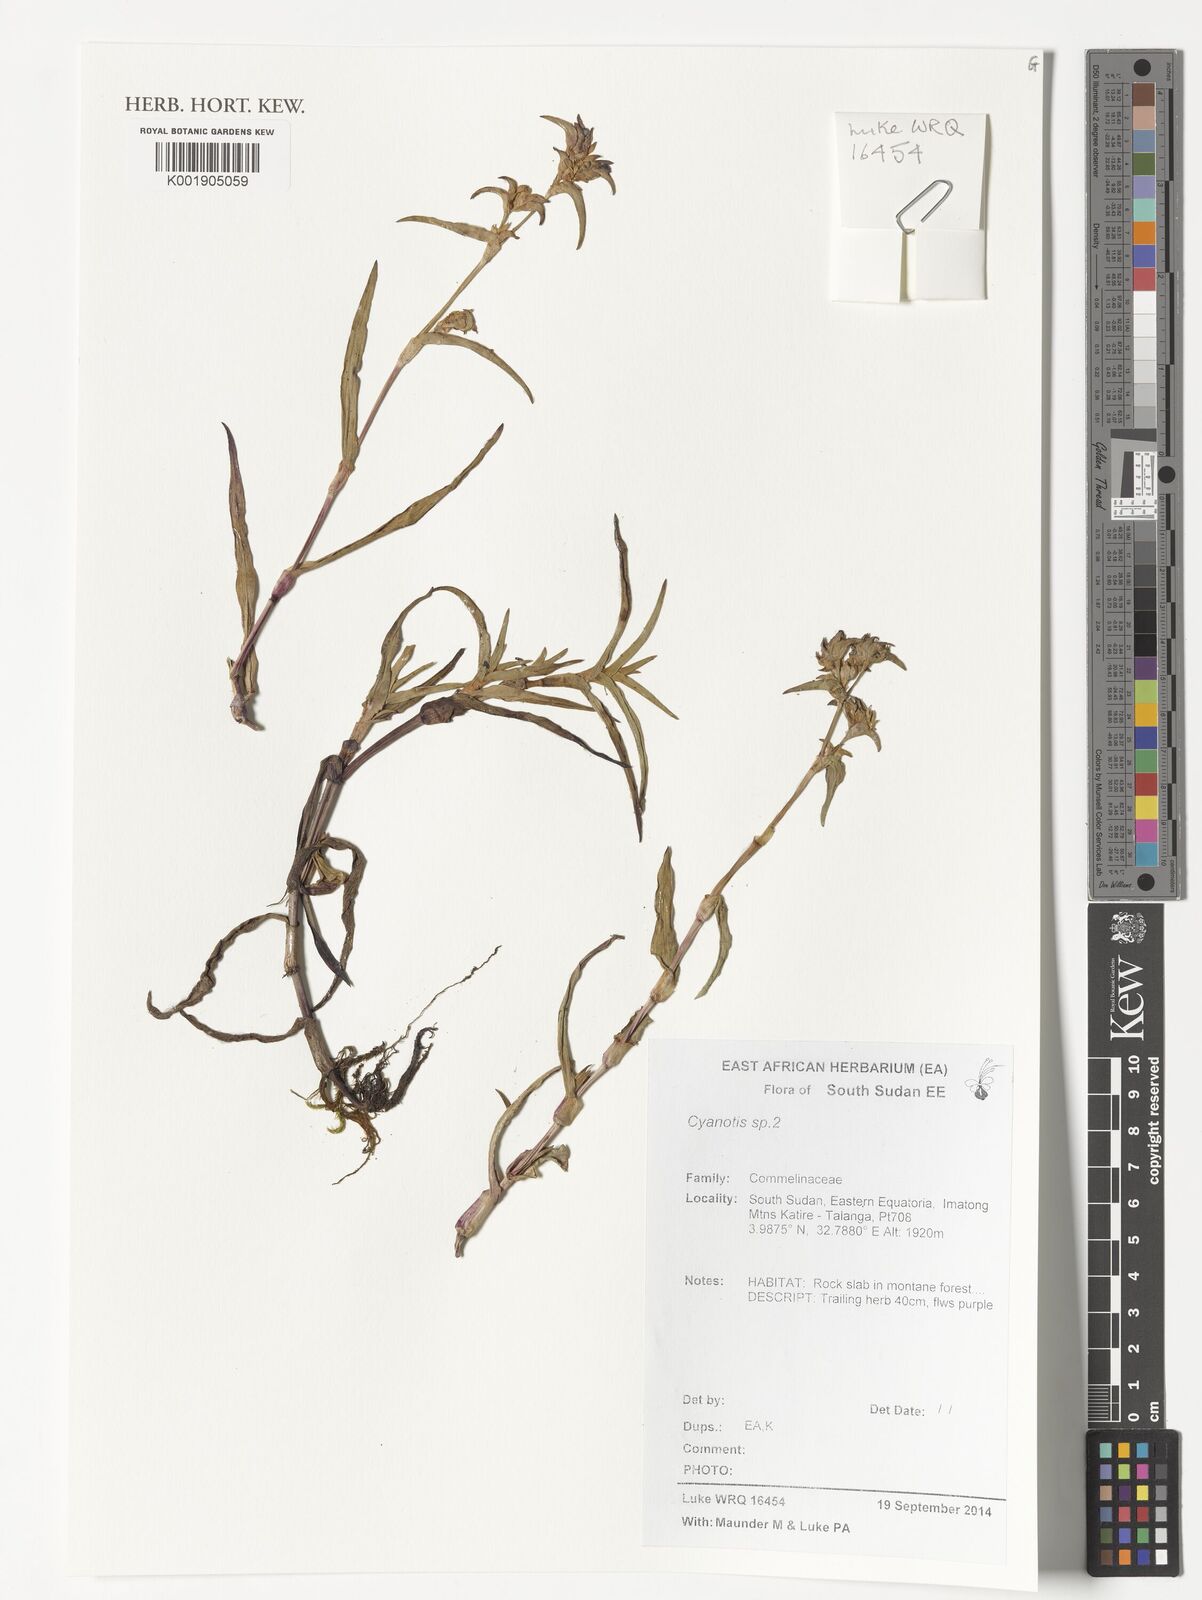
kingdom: Plantae
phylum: Tracheophyta
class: Liliopsida
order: Commelinales
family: Commelinaceae
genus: Cyanotis
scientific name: Cyanotis
